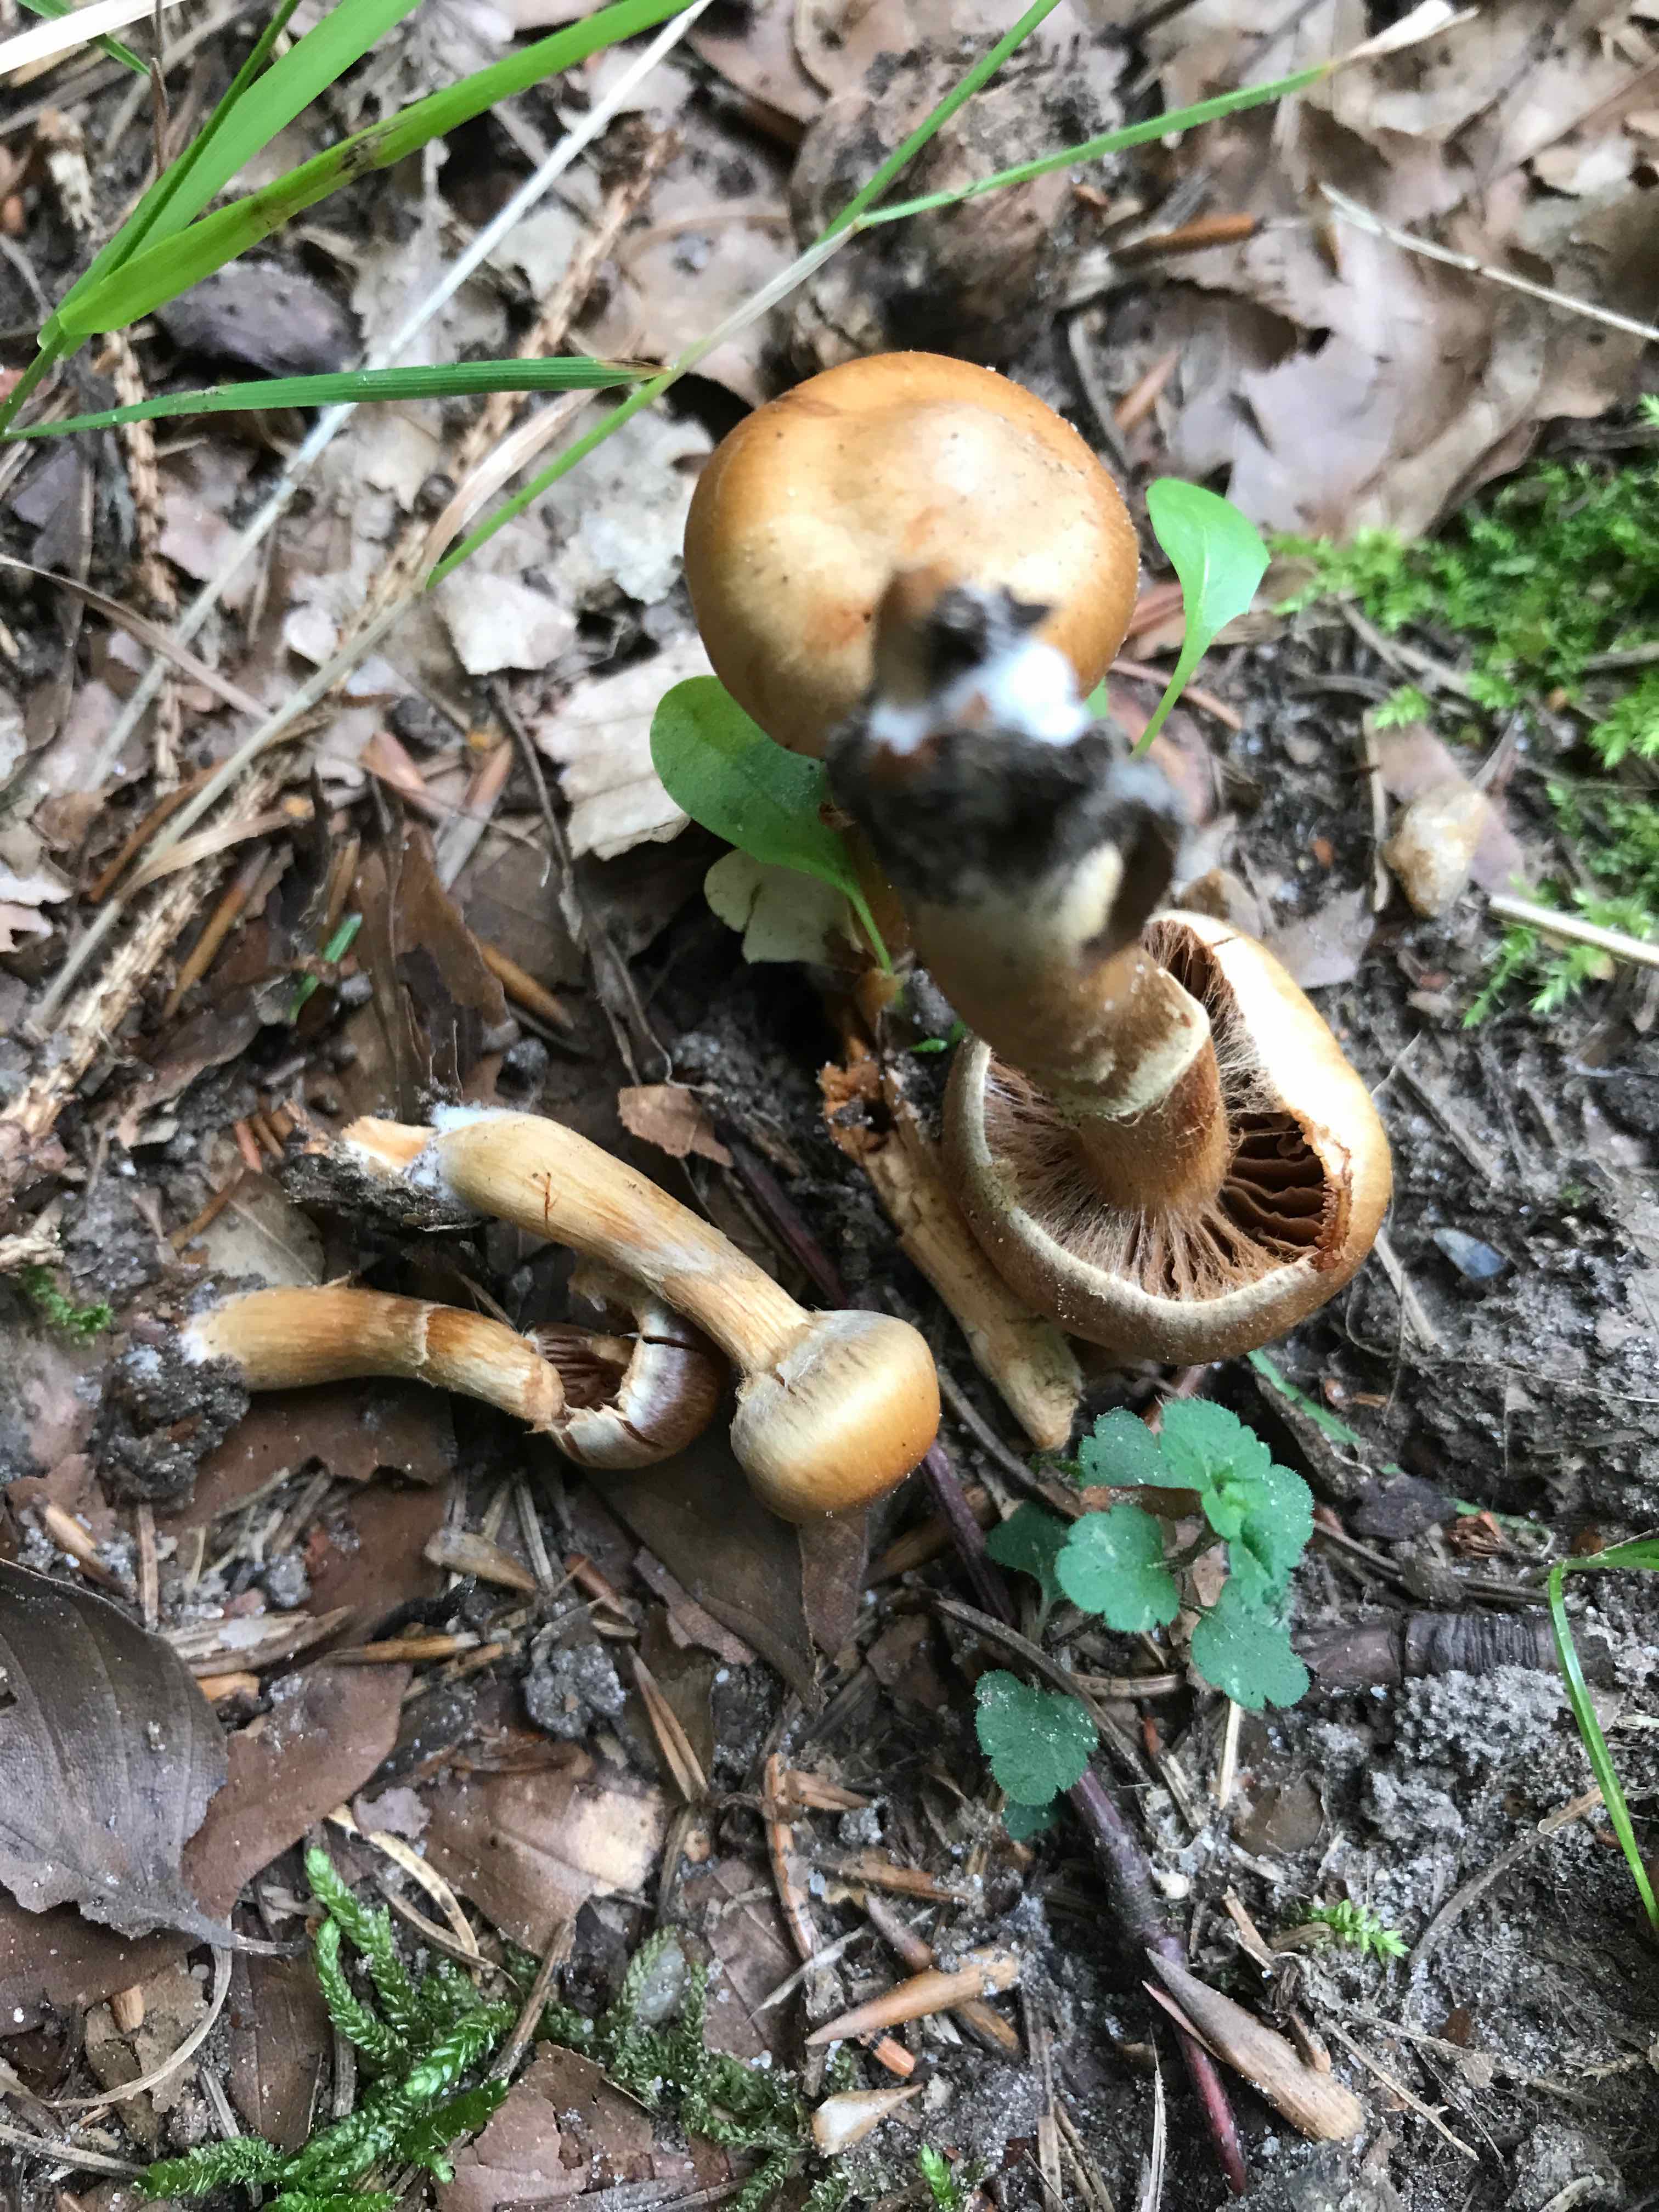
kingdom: Fungi
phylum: Basidiomycota
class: Agaricomycetes
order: Agaricales
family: Cortinariaceae
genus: Cortinarius
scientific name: Cortinarius
